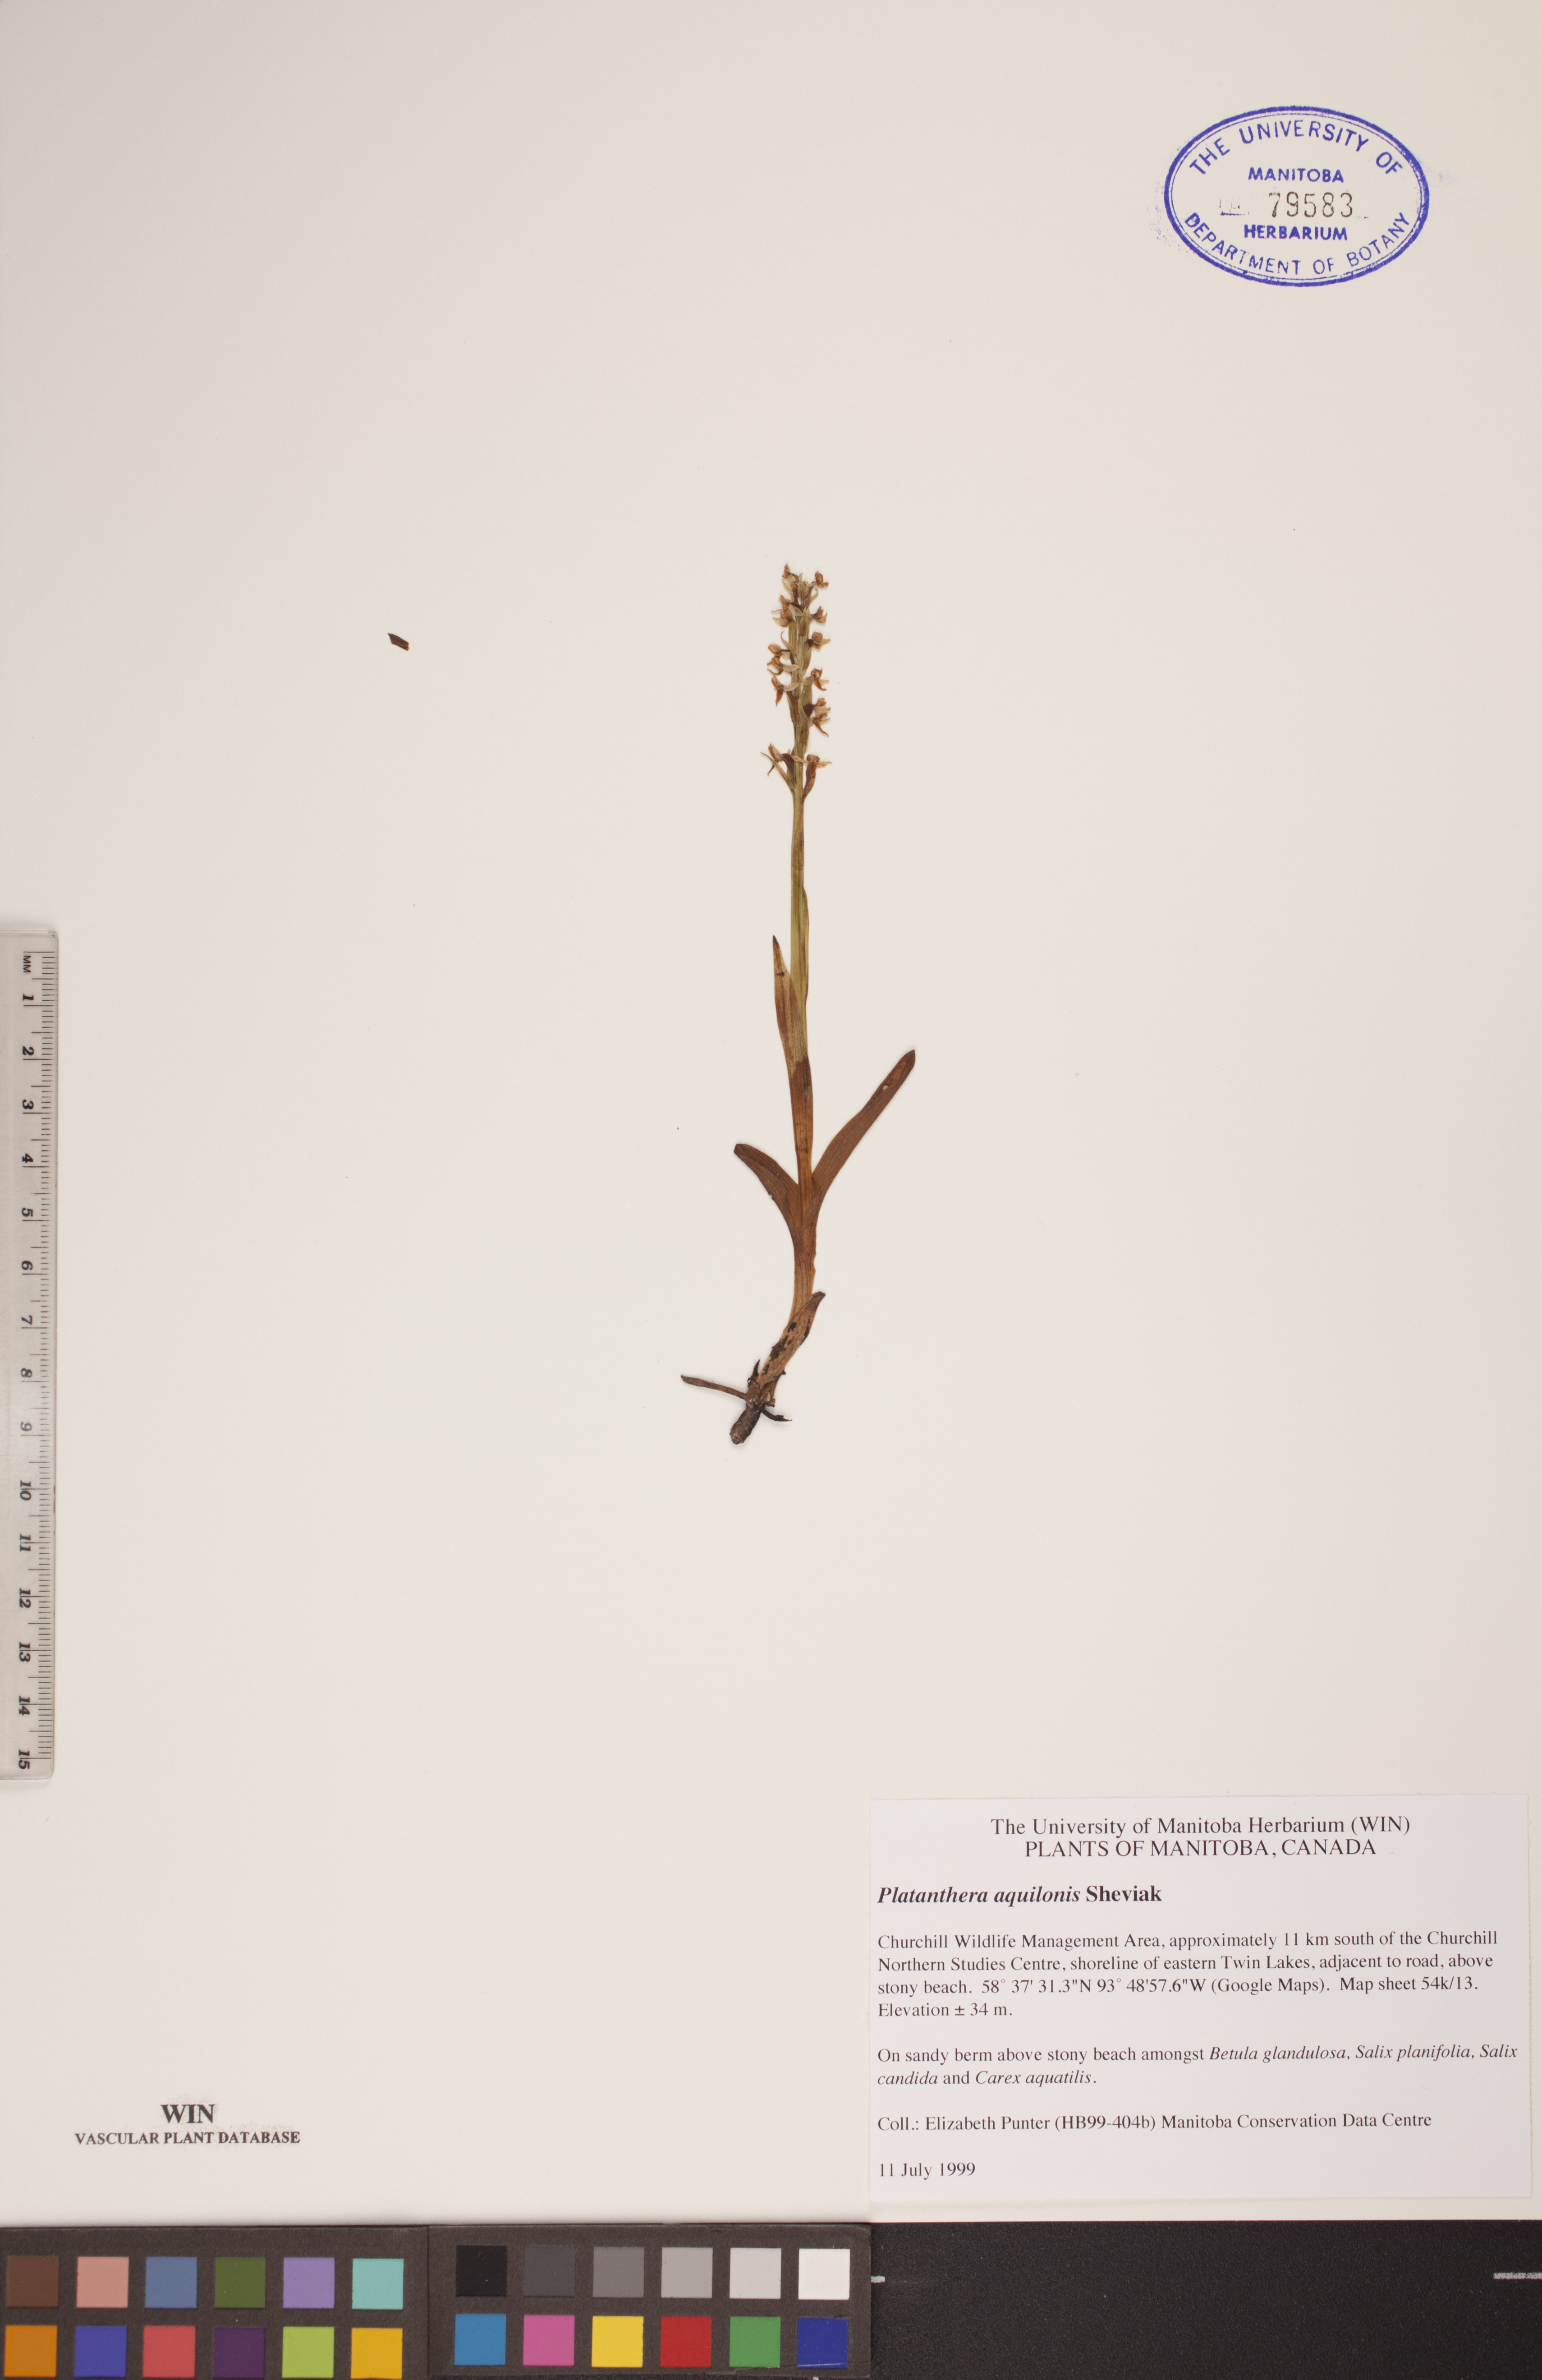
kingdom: Plantae
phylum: Tracheophyta
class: Liliopsida
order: Asparagales
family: Orchidaceae
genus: Platanthera
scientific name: Platanthera aquilonis
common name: Northern green orchid
